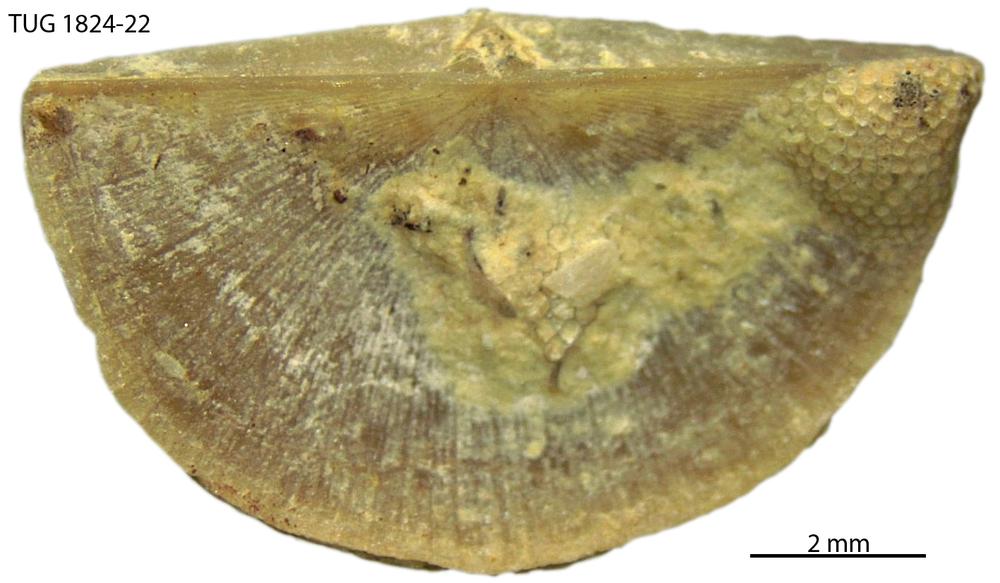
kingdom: Animalia
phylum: Brachiopoda
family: Sowerbyellidae
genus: Sowerbyella
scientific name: Sowerbyella
